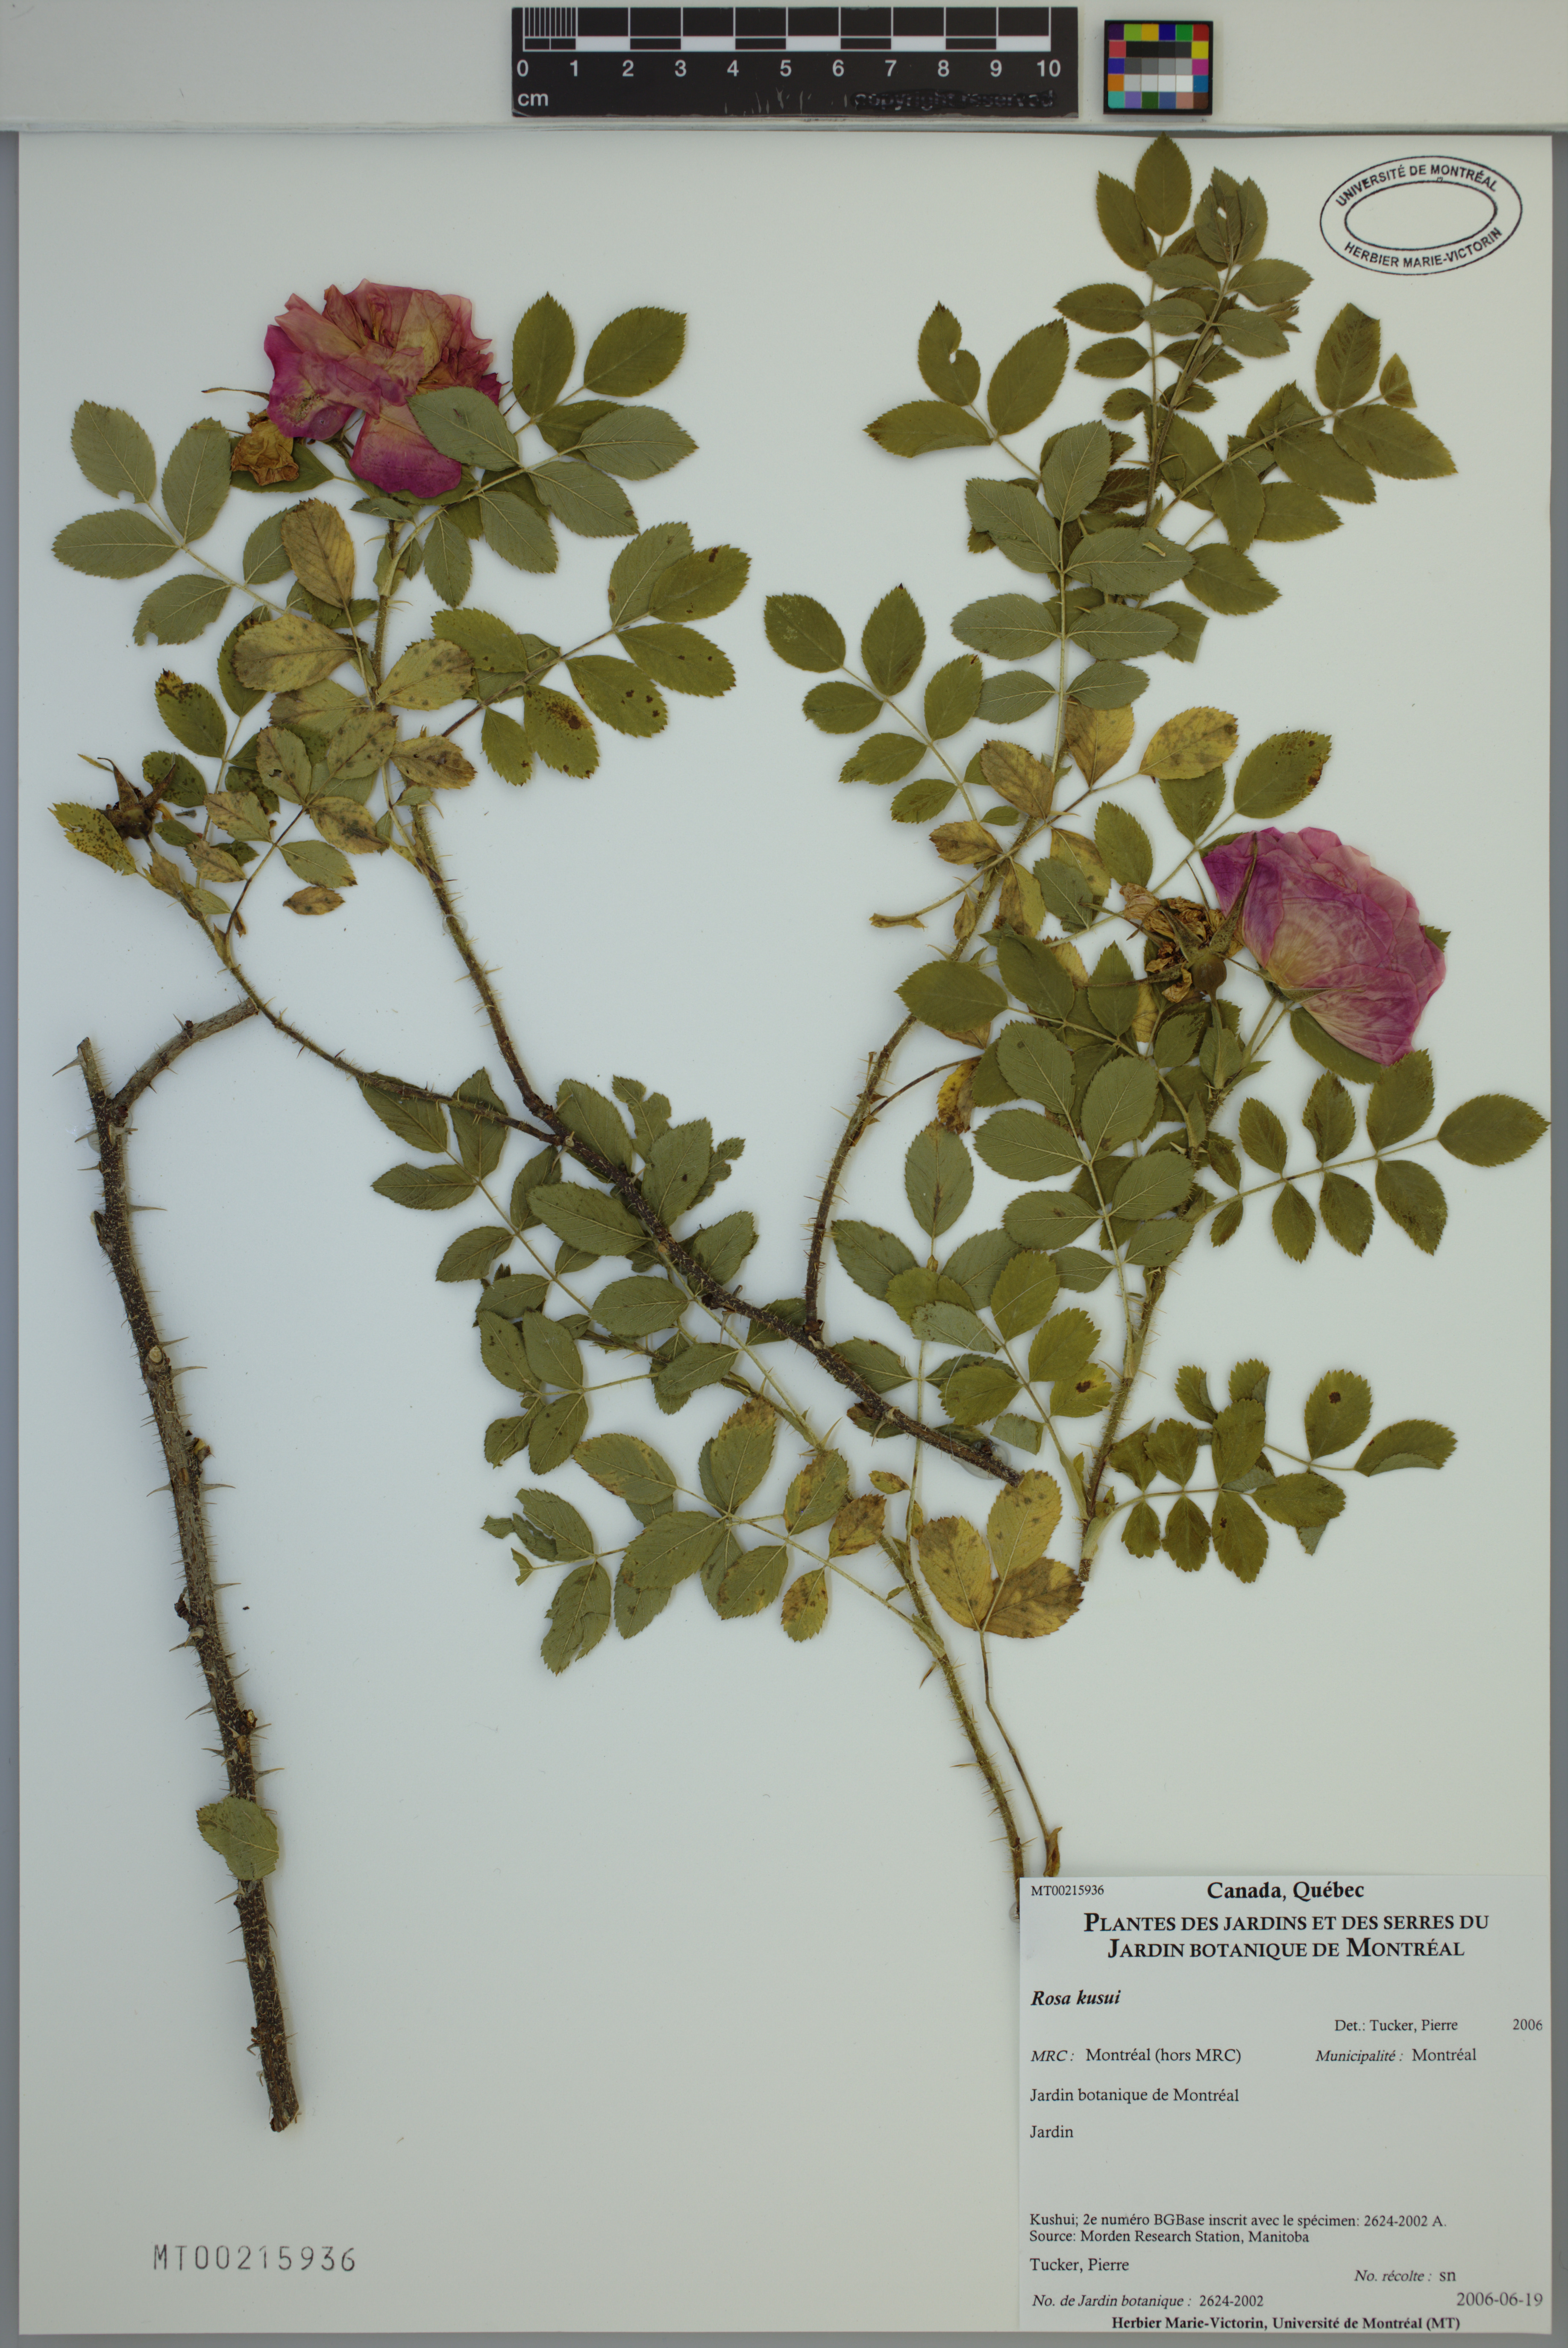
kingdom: Plantae
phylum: Tracheophyta
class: Magnoliopsida
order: Rosales
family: Rosaceae
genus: Rosa
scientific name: Rosa
